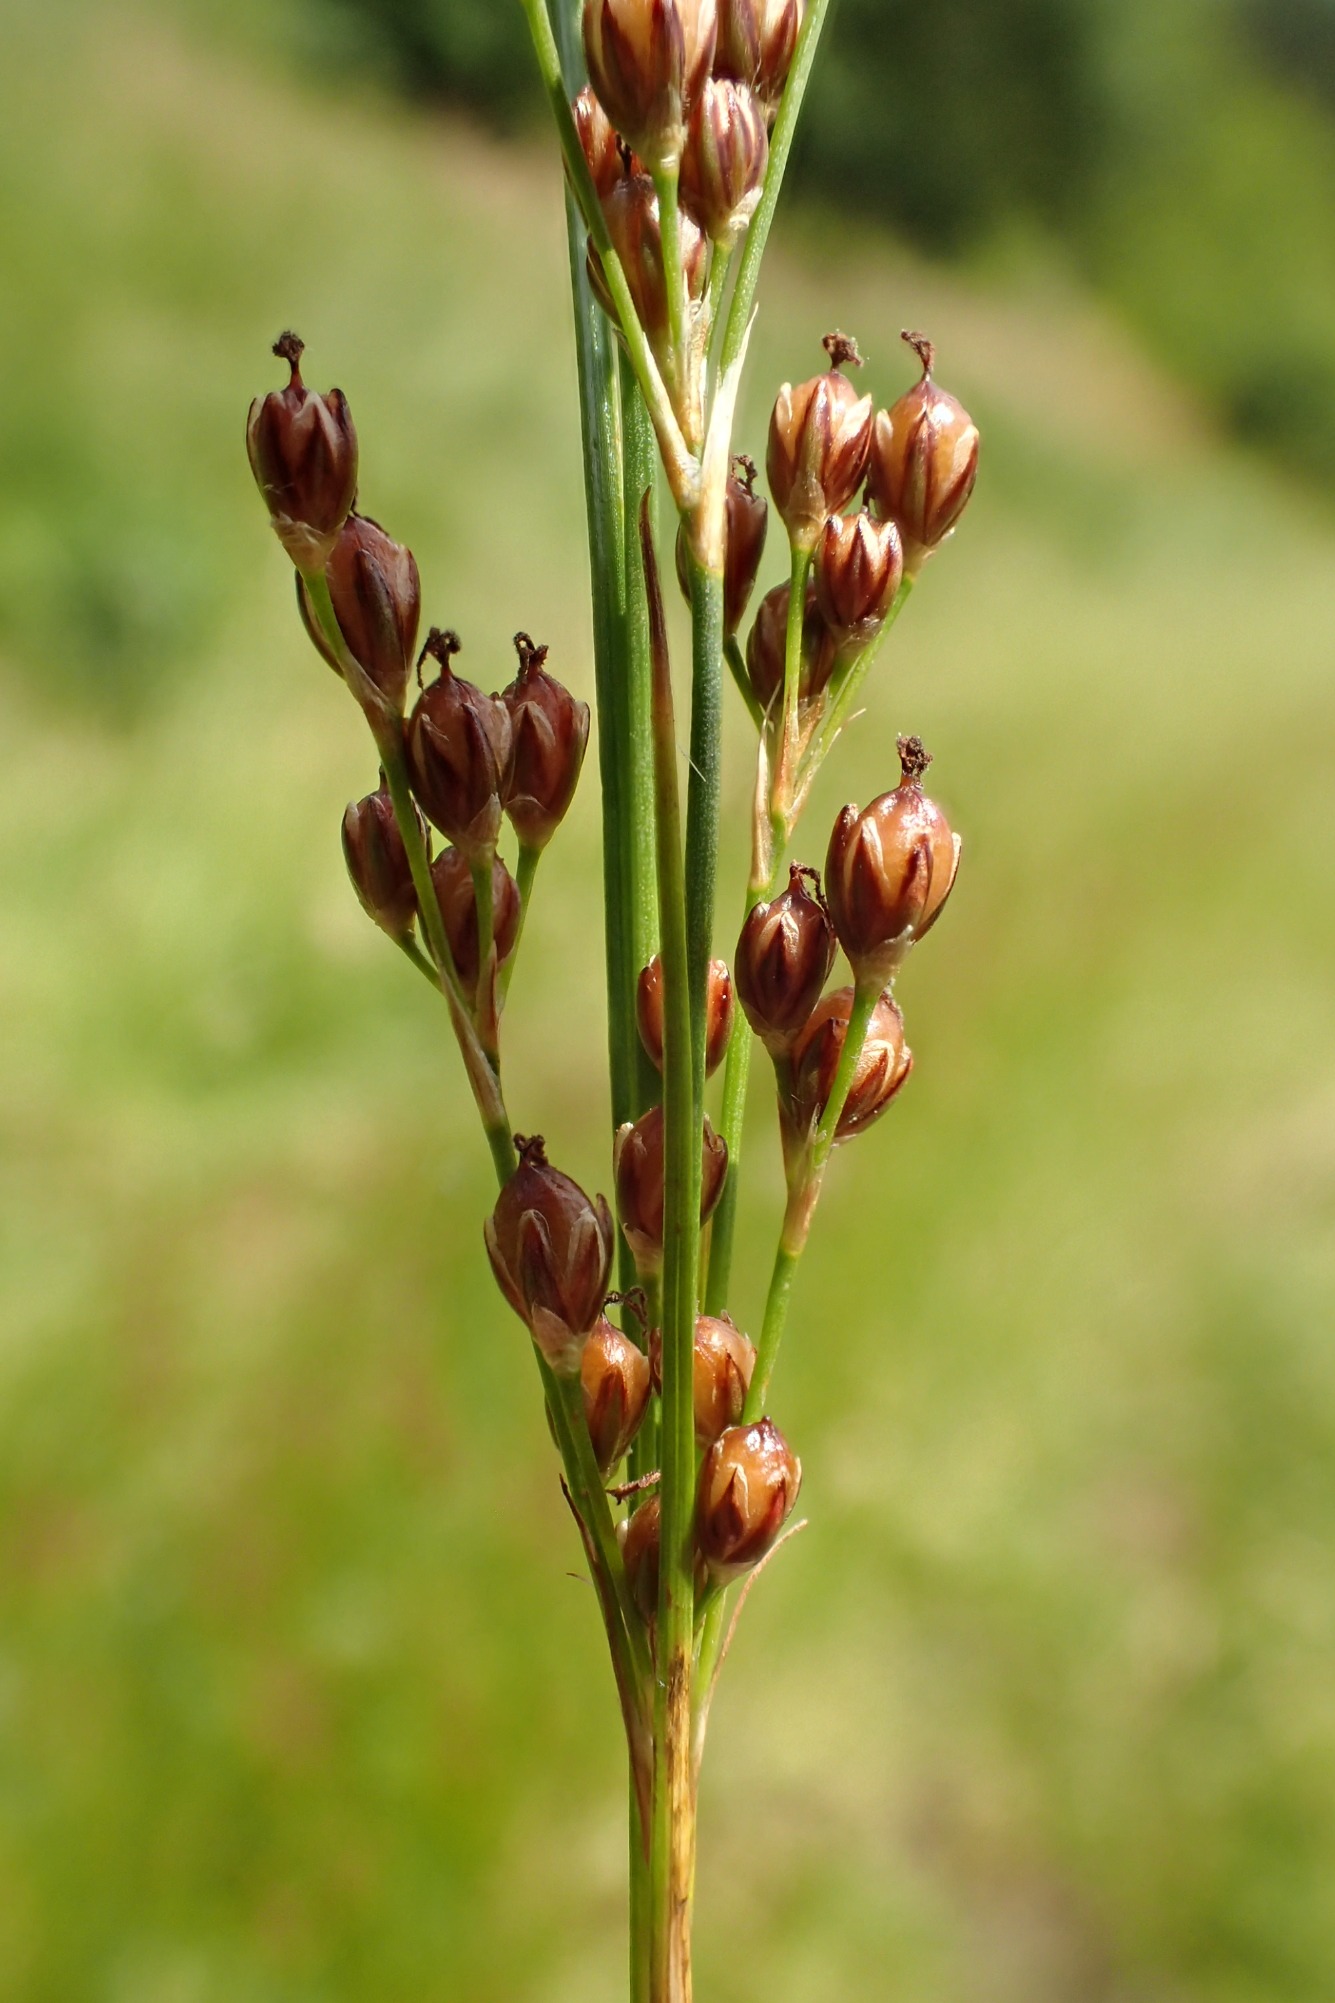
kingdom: Plantae
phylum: Tracheophyta
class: Liliopsida
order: Poales
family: Juncaceae
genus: Juncus
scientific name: Juncus compressus
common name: Fladstrået siv
